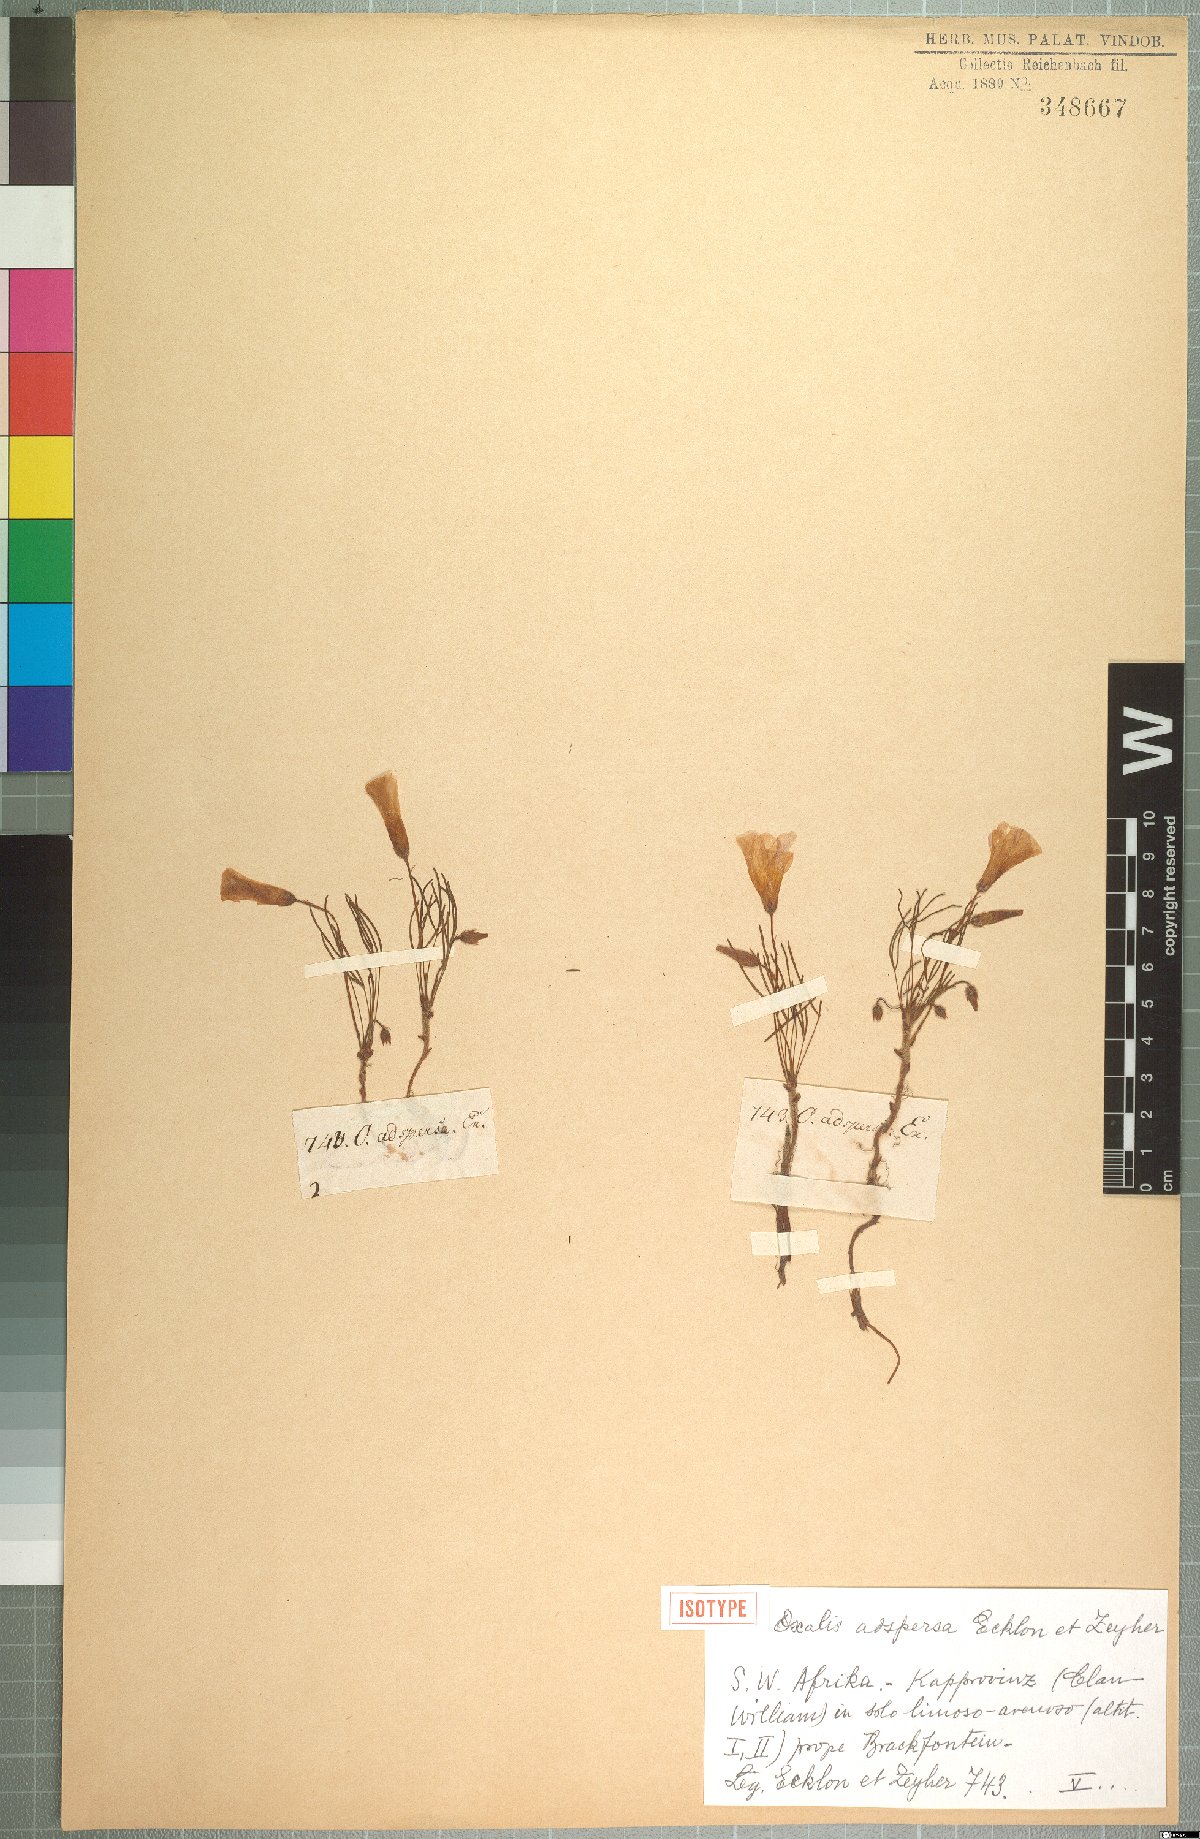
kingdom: Plantae
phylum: Tracheophyta
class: Magnoliopsida
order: Oxalidales
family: Oxalidaceae
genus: Oxalis
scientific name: Oxalis adspersa
